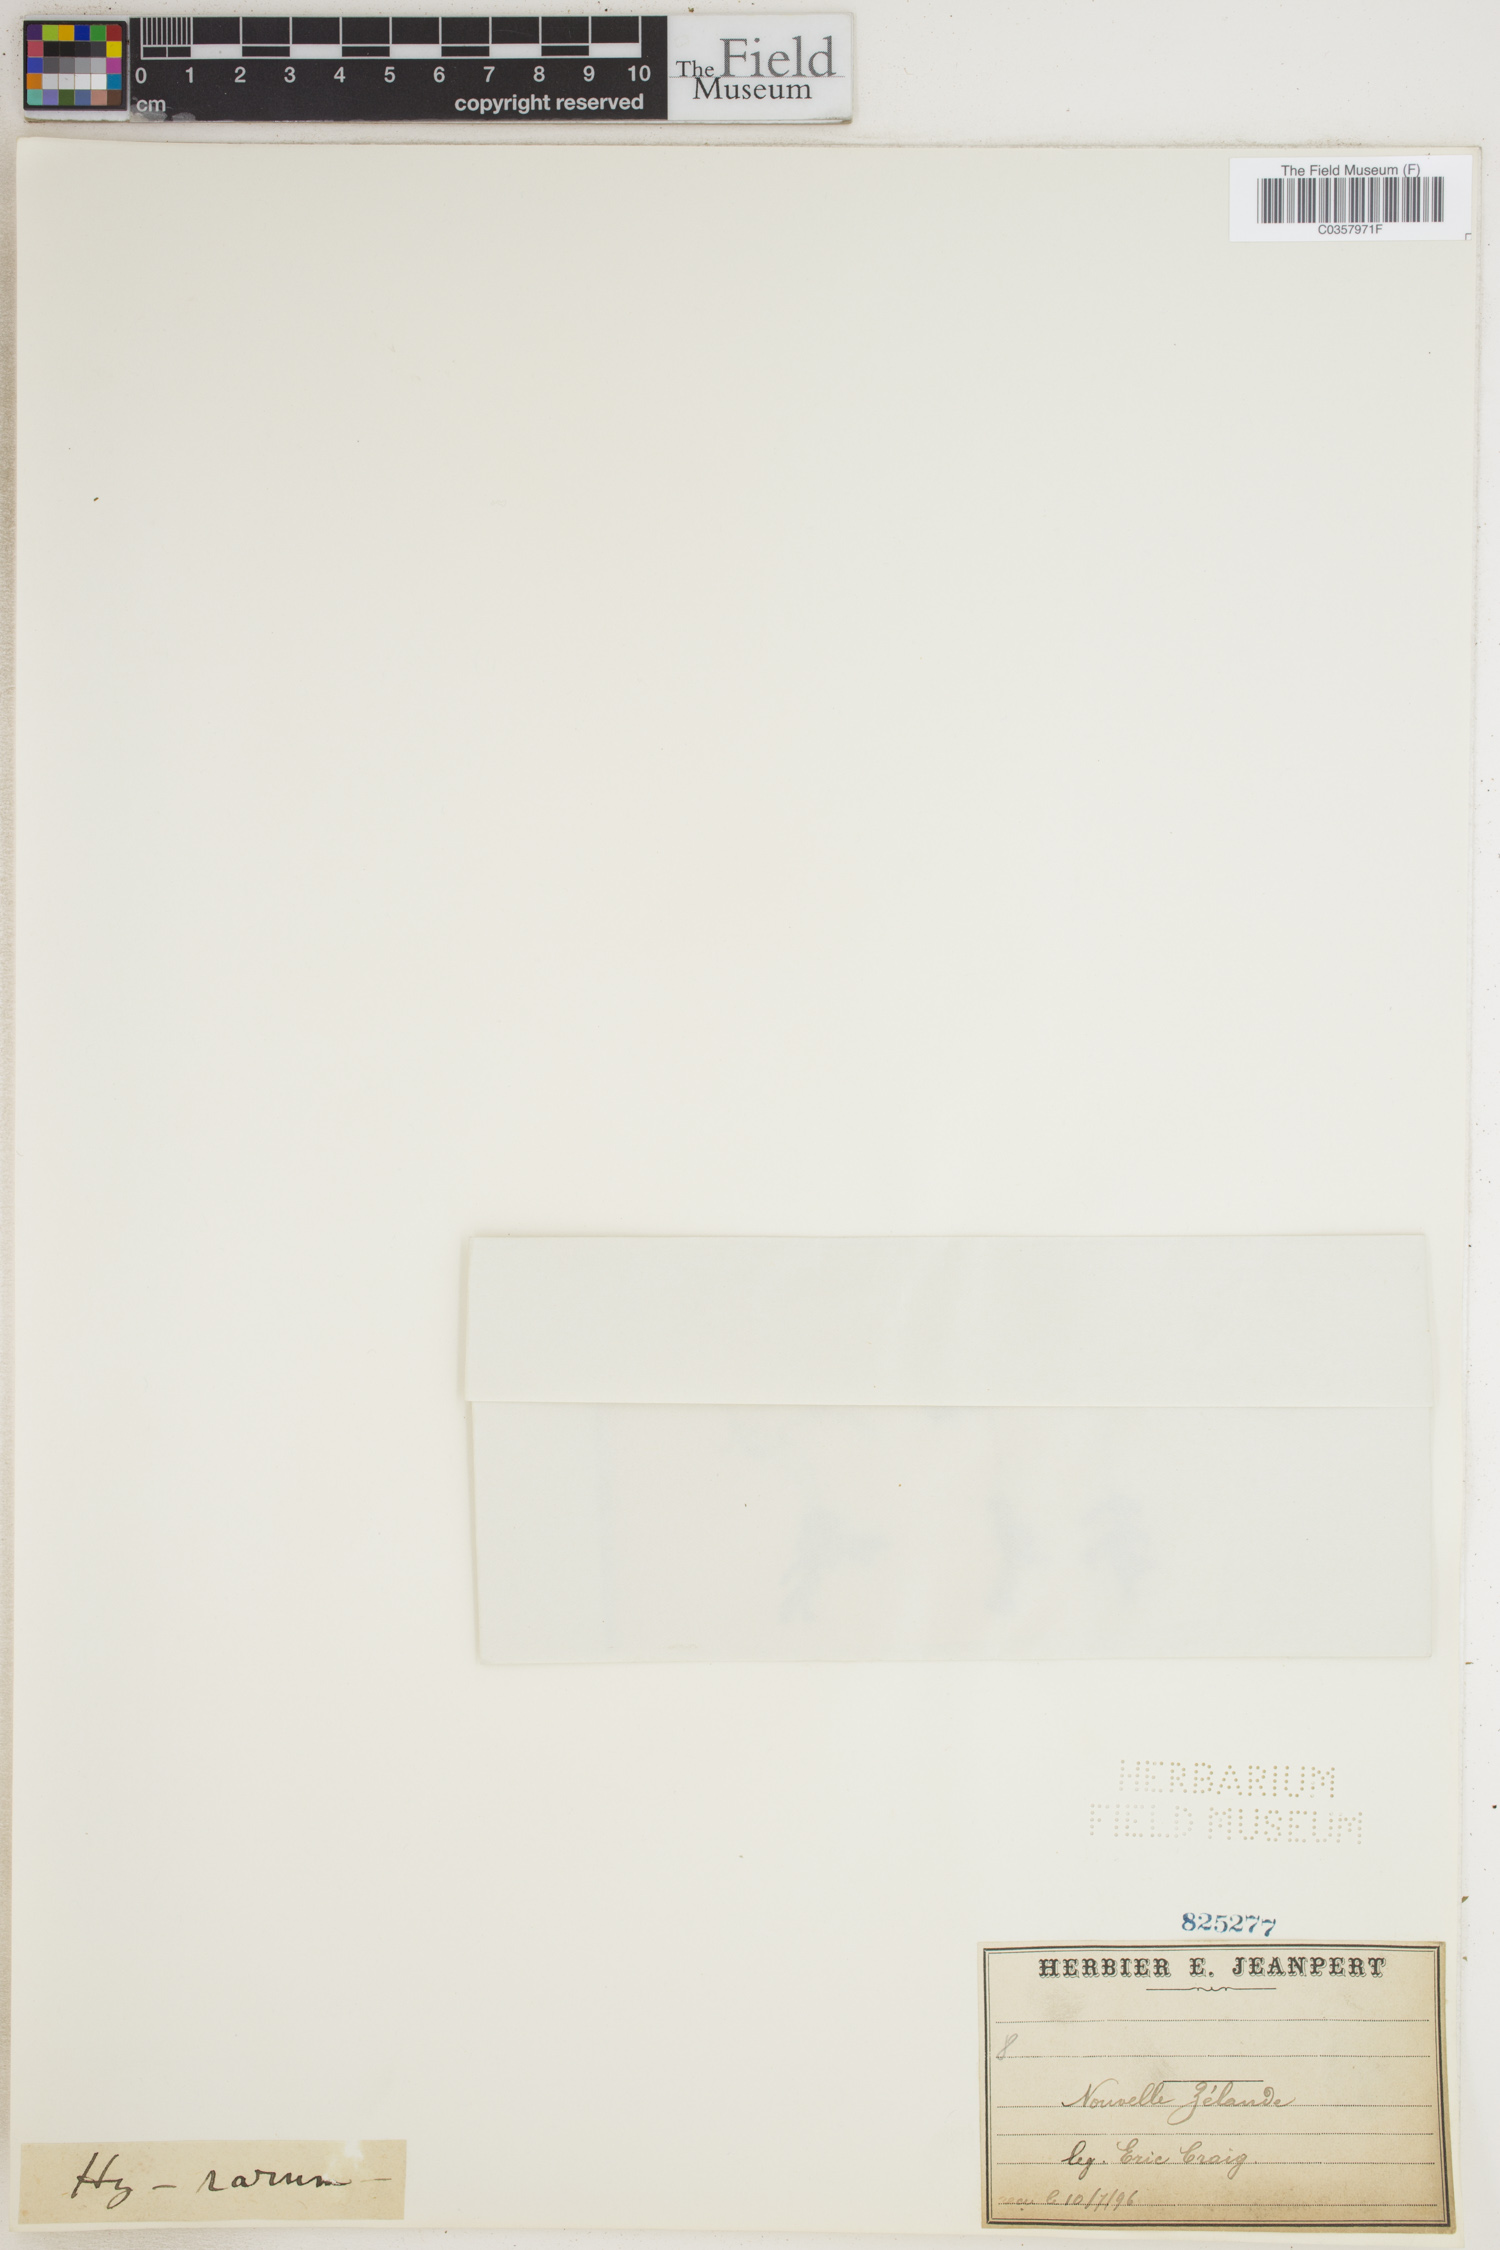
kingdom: Plantae
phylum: Tracheophyta
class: Polypodiopsida
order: Hymenophyllales
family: Hymenophyllaceae
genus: Hymenophyllum
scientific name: Hymenophyllum rarum
